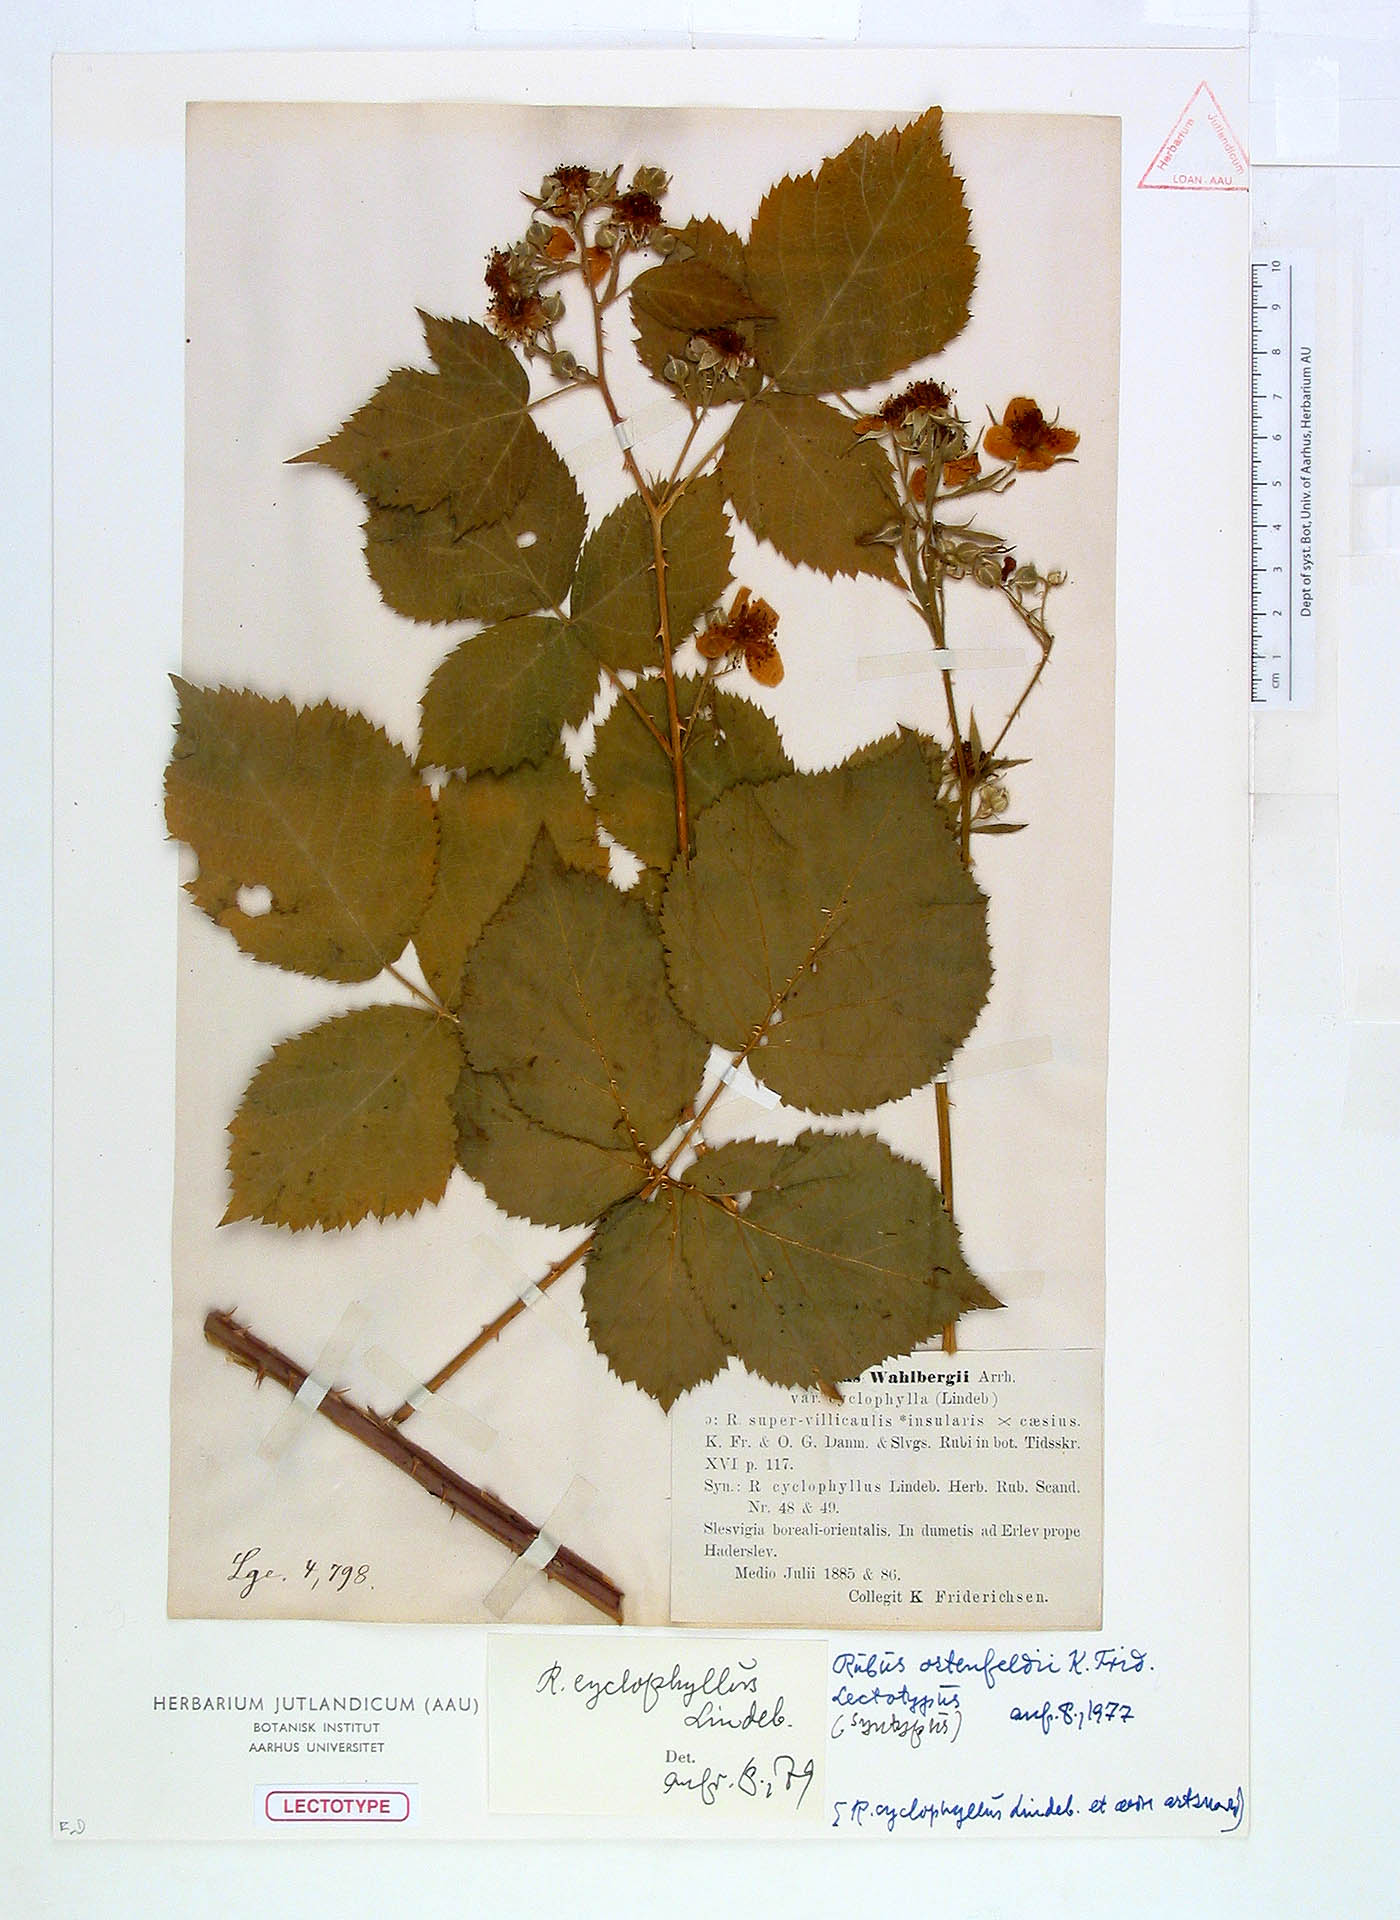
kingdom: Plantae
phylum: Tracheophyta
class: Magnoliopsida
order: Rosales
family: Rosaceae
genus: Rubus
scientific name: Rubus cyclomorphus
